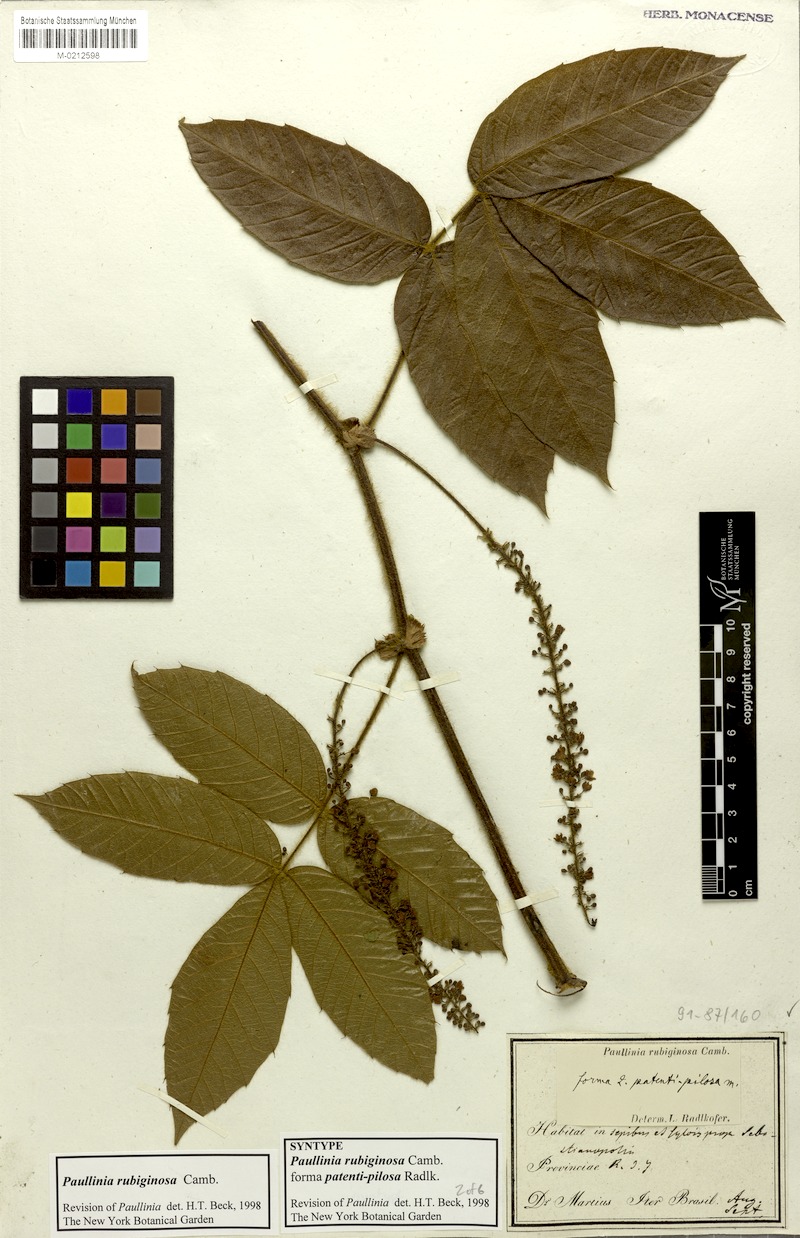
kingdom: Plantae
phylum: Tracheophyta
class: Magnoliopsida
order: Sapindales
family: Sapindaceae
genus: Paullinia
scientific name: Paullinia rubiginosa
